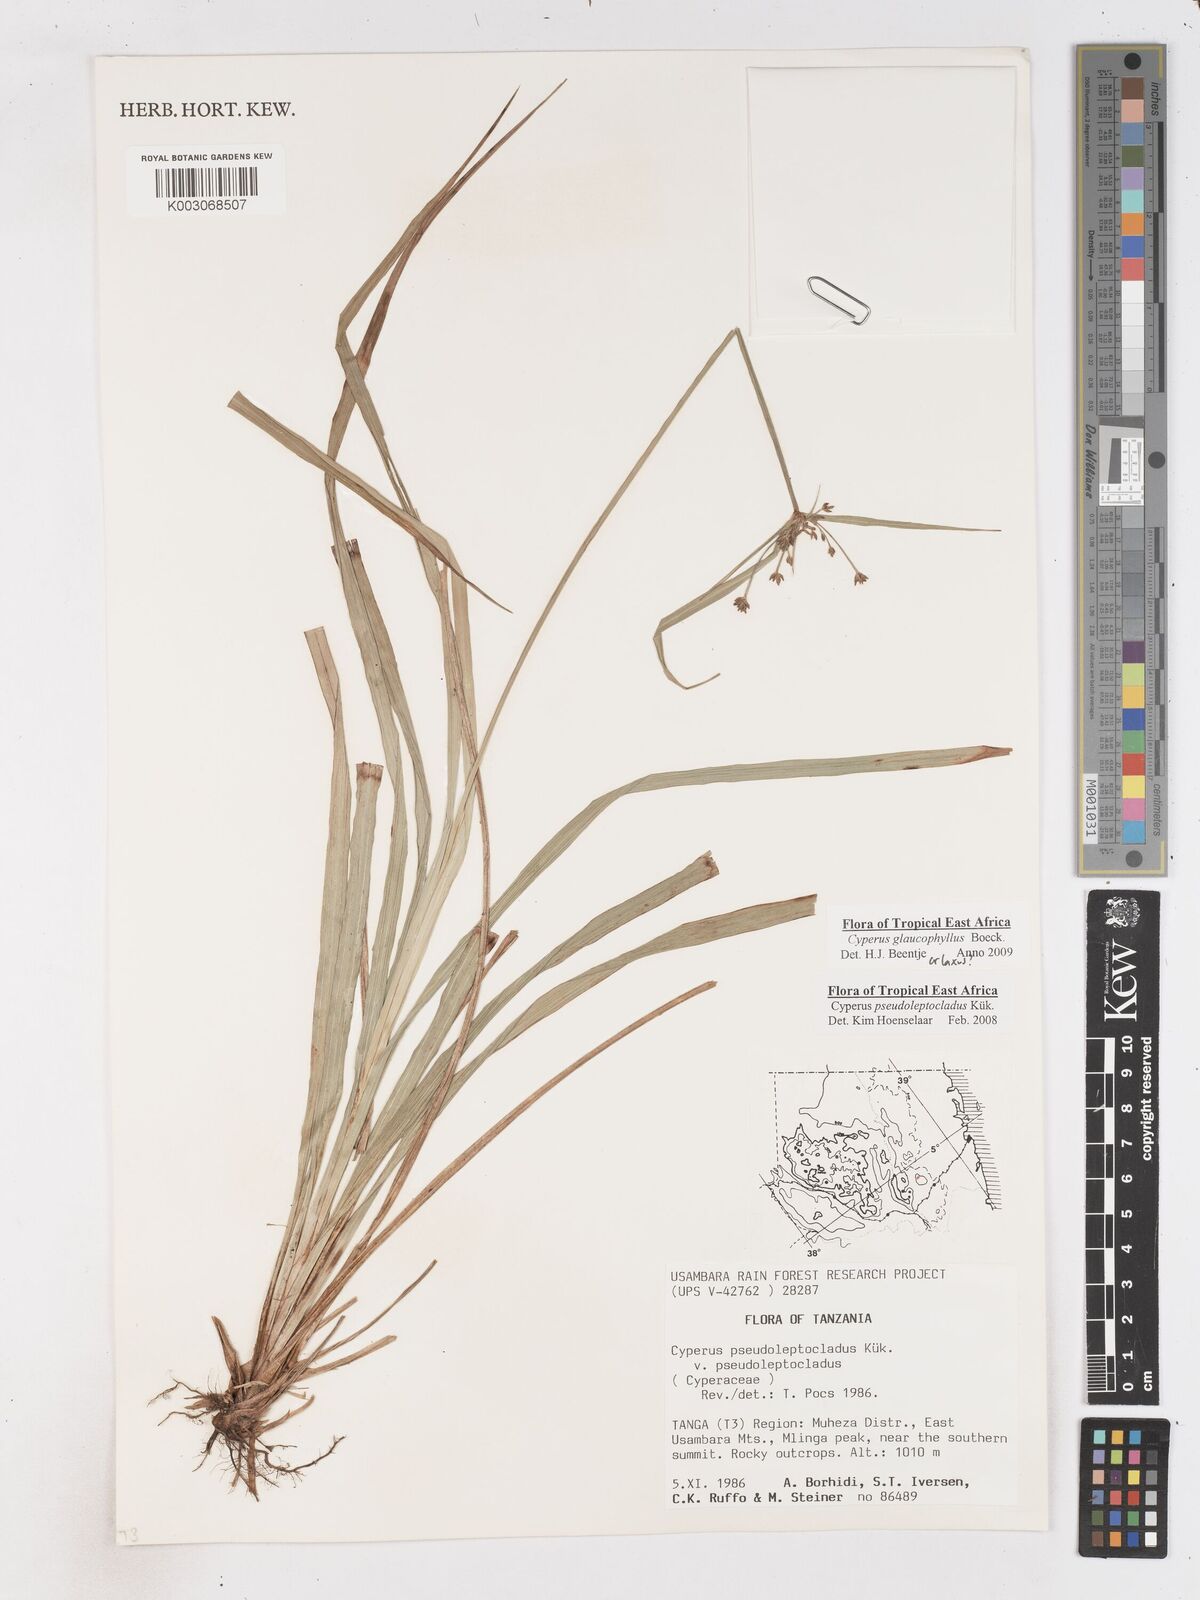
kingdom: Plantae
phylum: Tracheophyta
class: Liliopsida
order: Poales
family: Cyperaceae
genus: Cyperus
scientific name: Cyperus glaucophyllus
